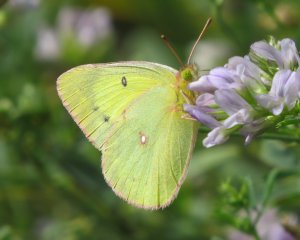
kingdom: Animalia
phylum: Arthropoda
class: Insecta
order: Lepidoptera
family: Pieridae
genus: Colias
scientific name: Colias philodice
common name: Clouded Sulphur
